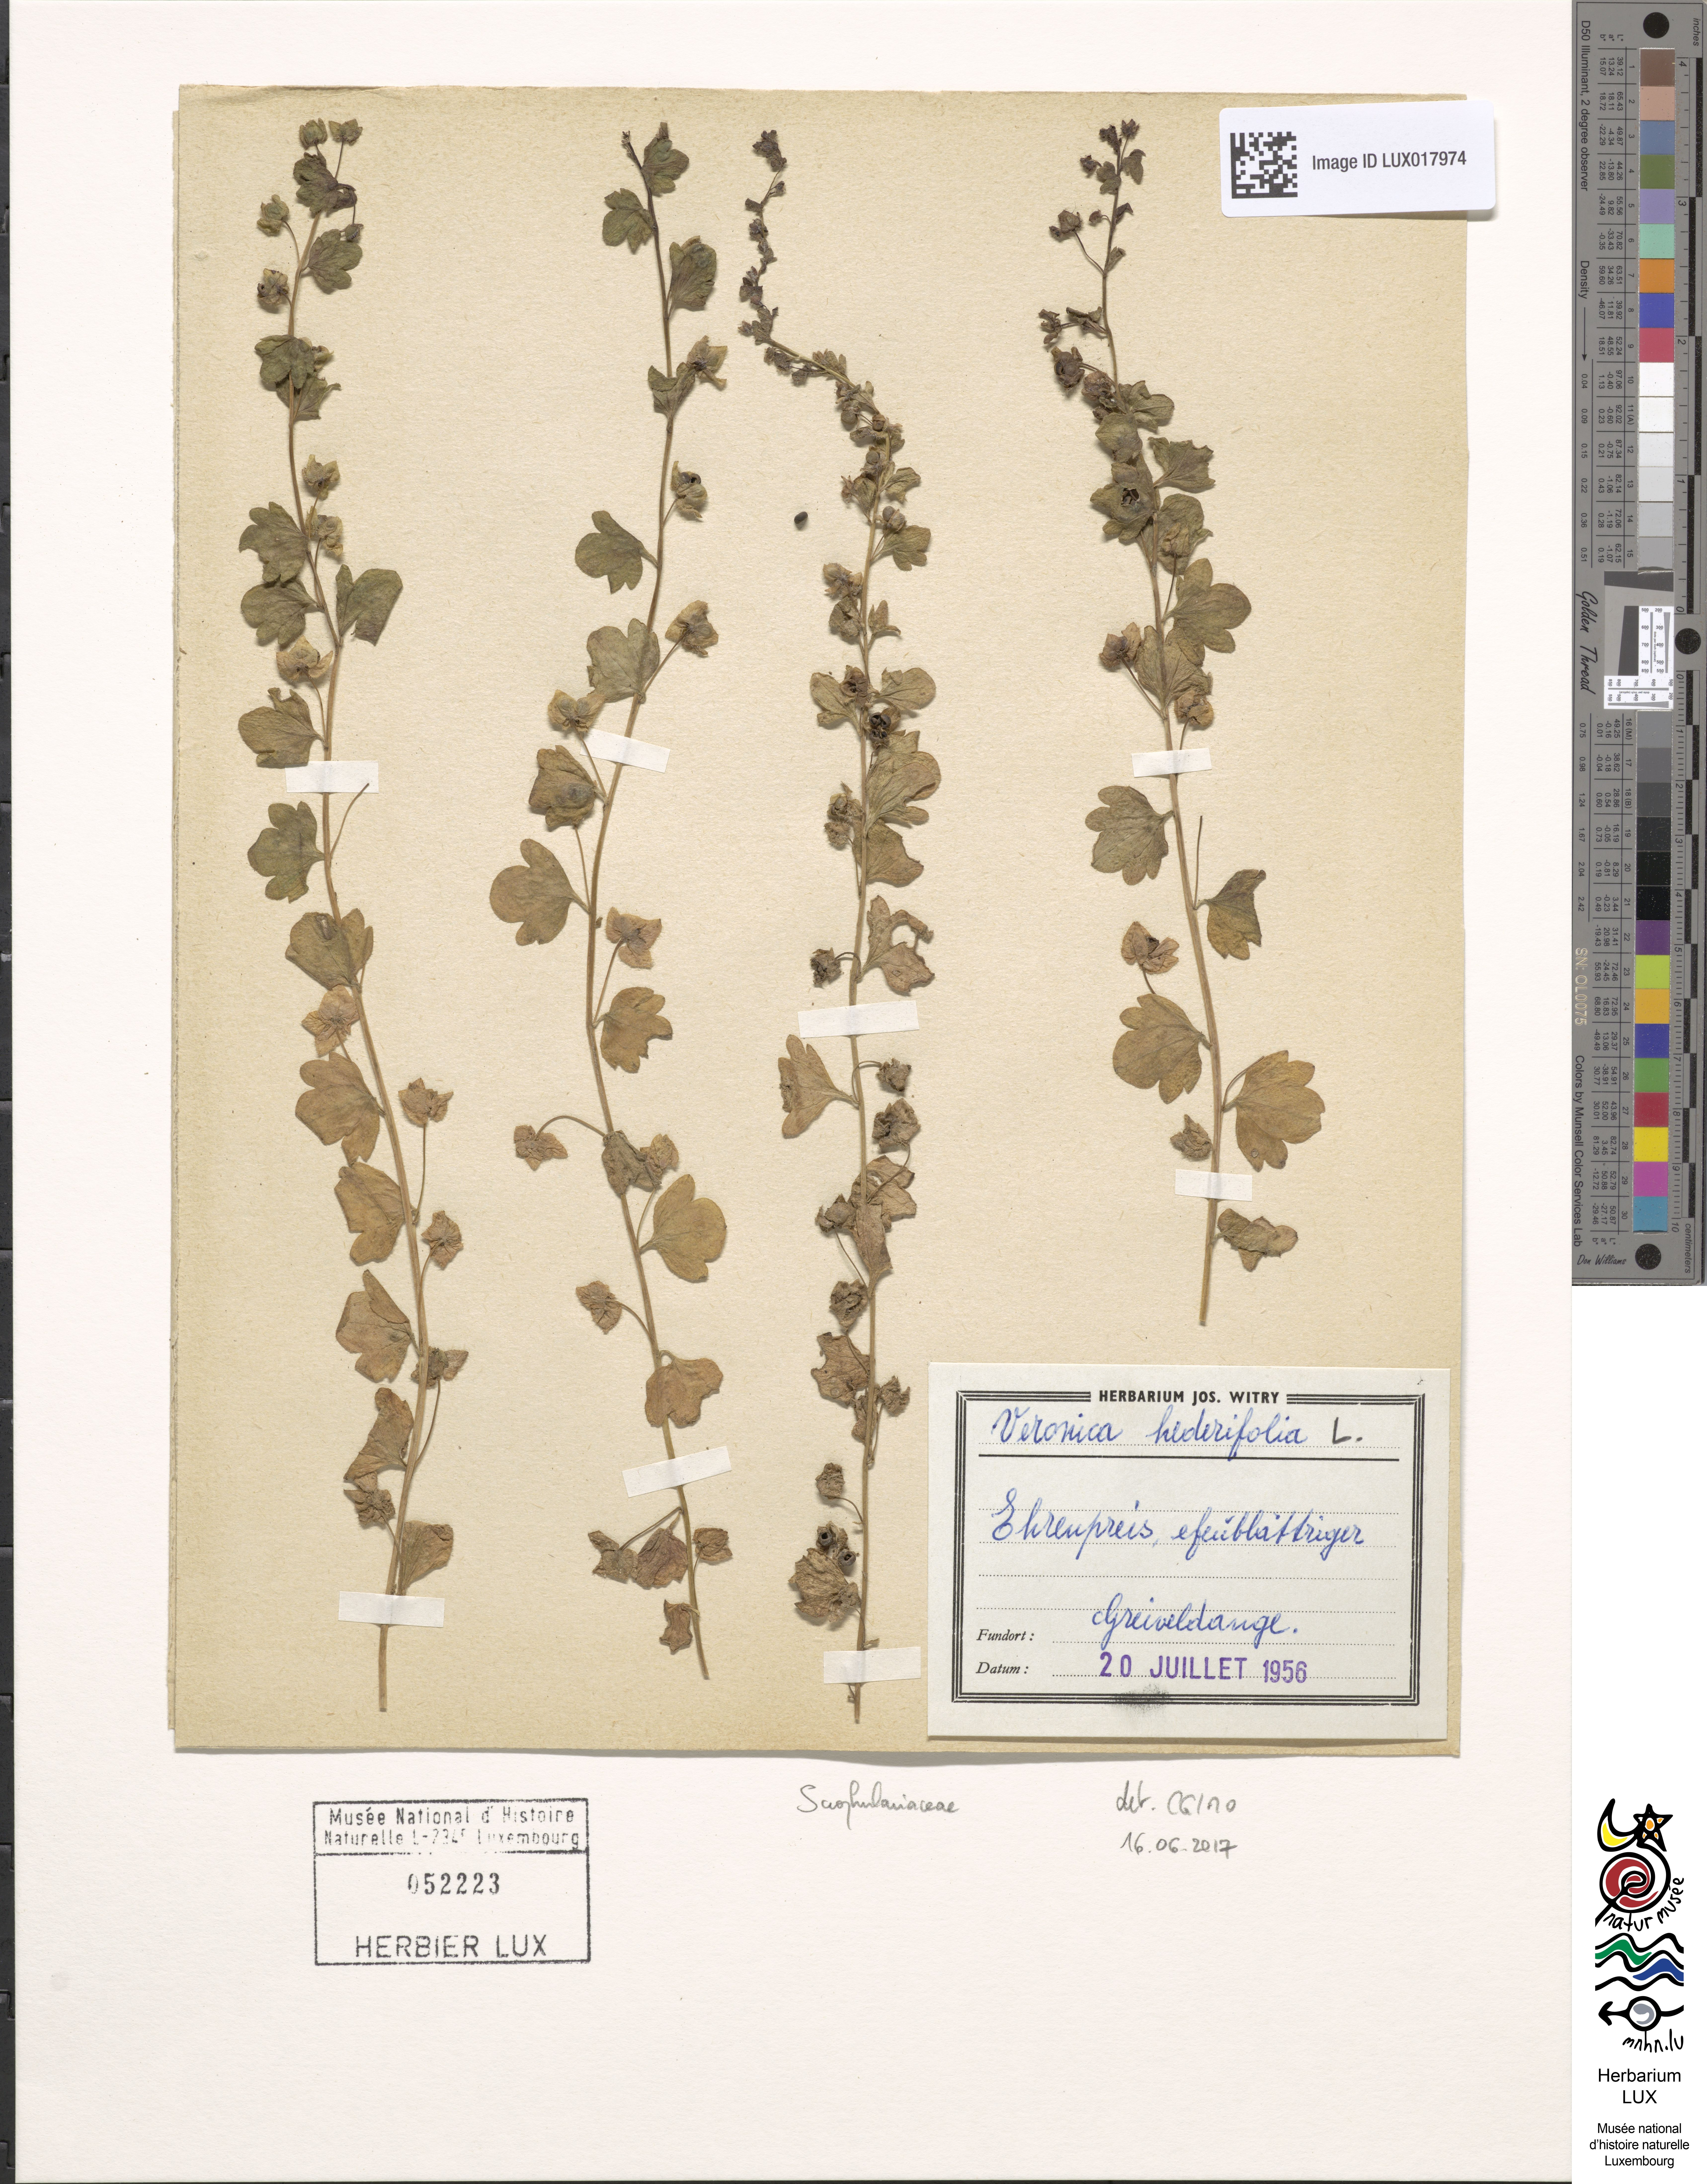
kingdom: Plantae
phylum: Tracheophyta
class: Magnoliopsida
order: Lamiales
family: Plantaginaceae
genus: Veronica
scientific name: Veronica hederifolia
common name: Ivy-leaved speedwell
